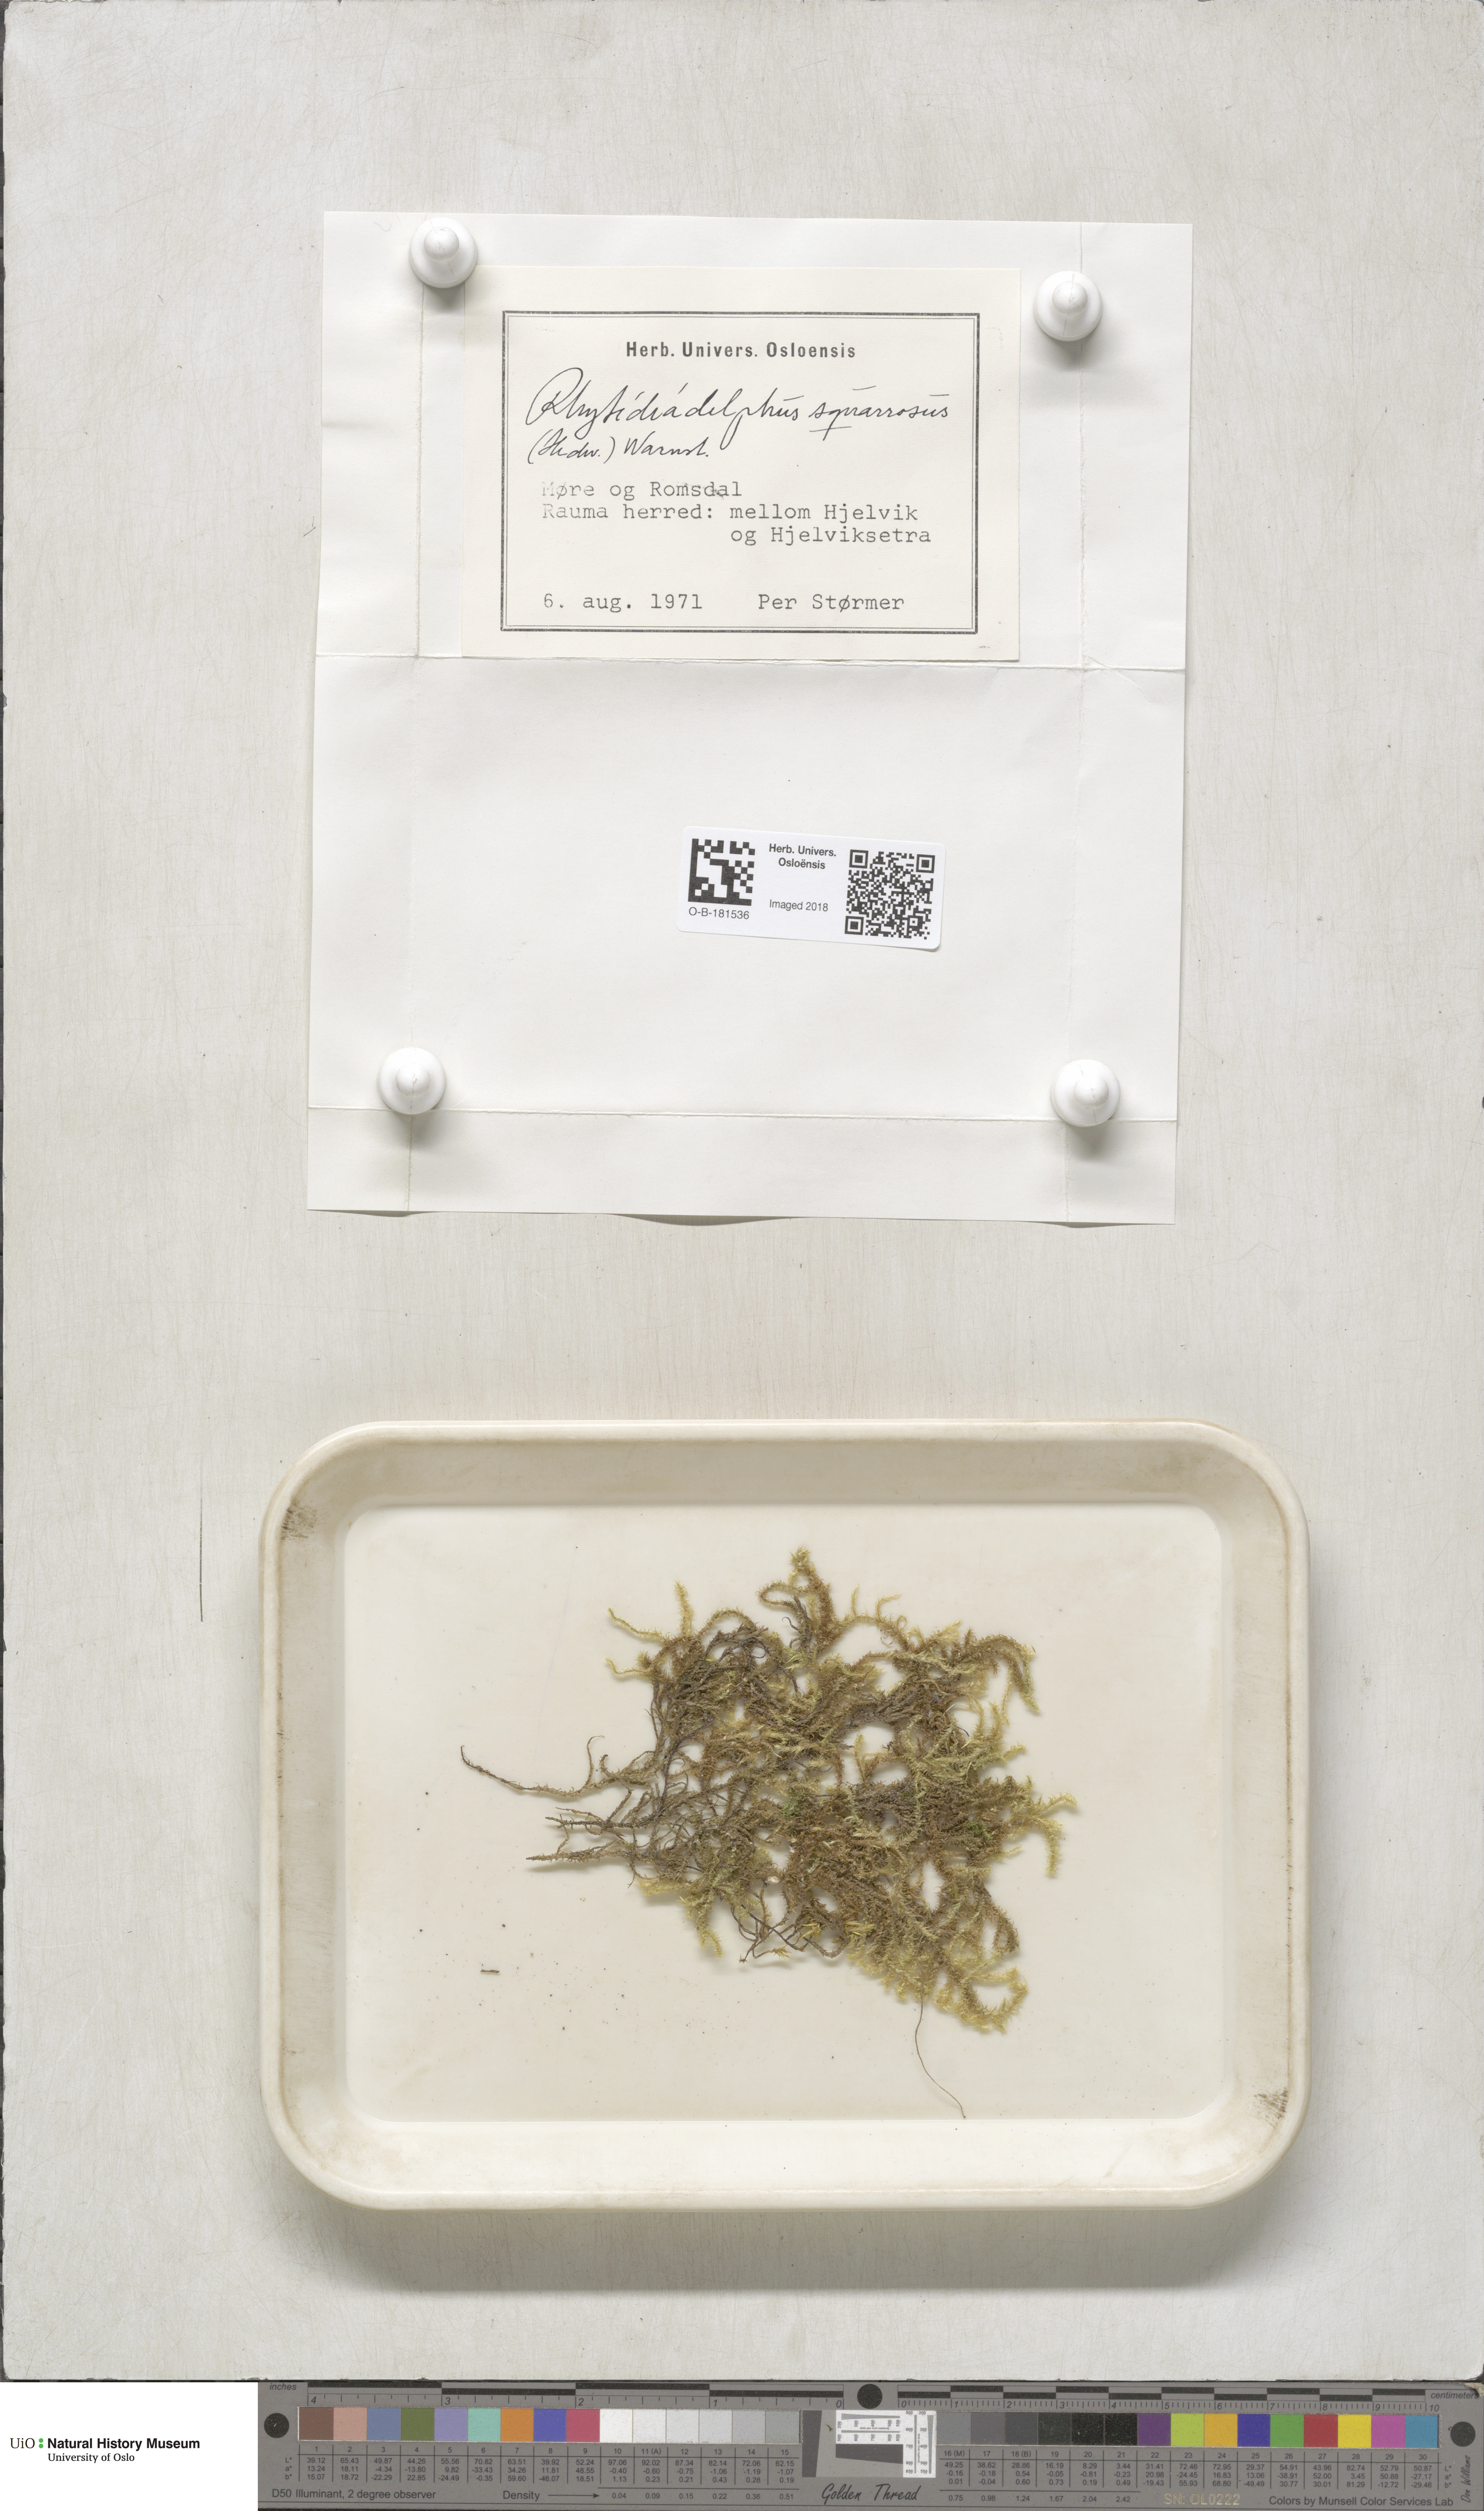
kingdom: Plantae
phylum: Bryophyta
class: Bryopsida
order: Hypnales
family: Hylocomiaceae
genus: Rhytidiadelphus
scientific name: Rhytidiadelphus squarrosus
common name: Springy turf-moss
